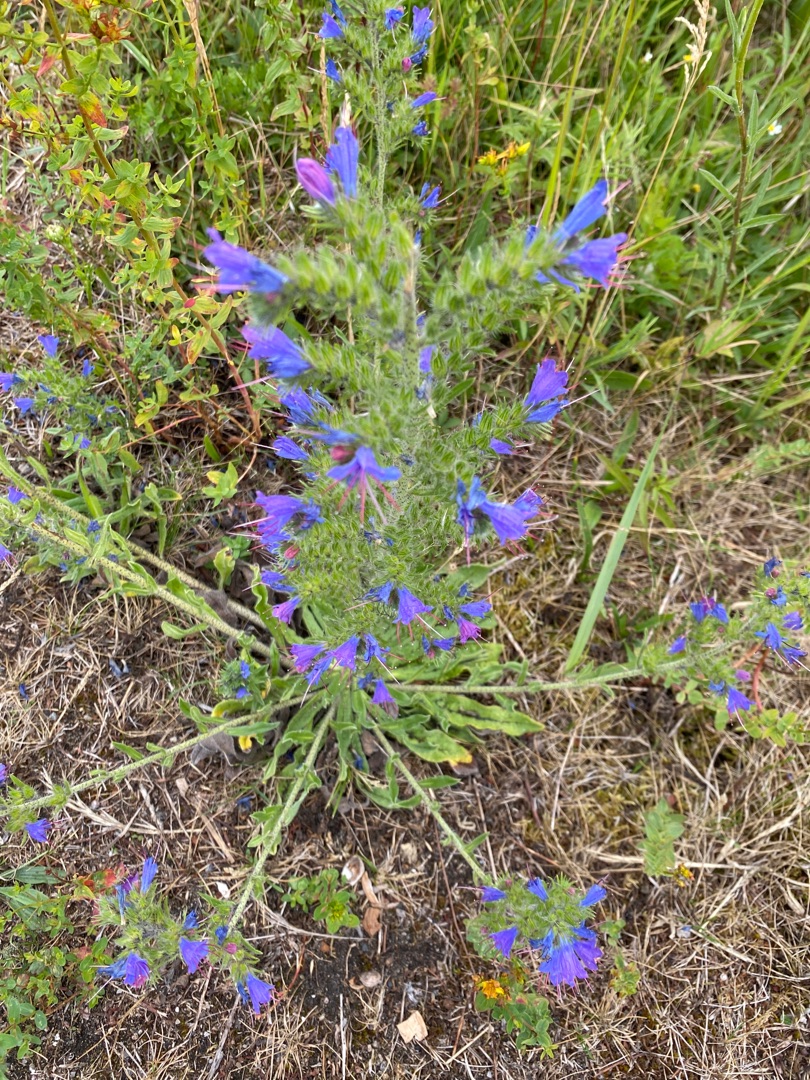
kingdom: Plantae
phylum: Tracheophyta
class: Magnoliopsida
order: Boraginales
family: Boraginaceae
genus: Echium
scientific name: Echium vulgare
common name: Slangehoved
